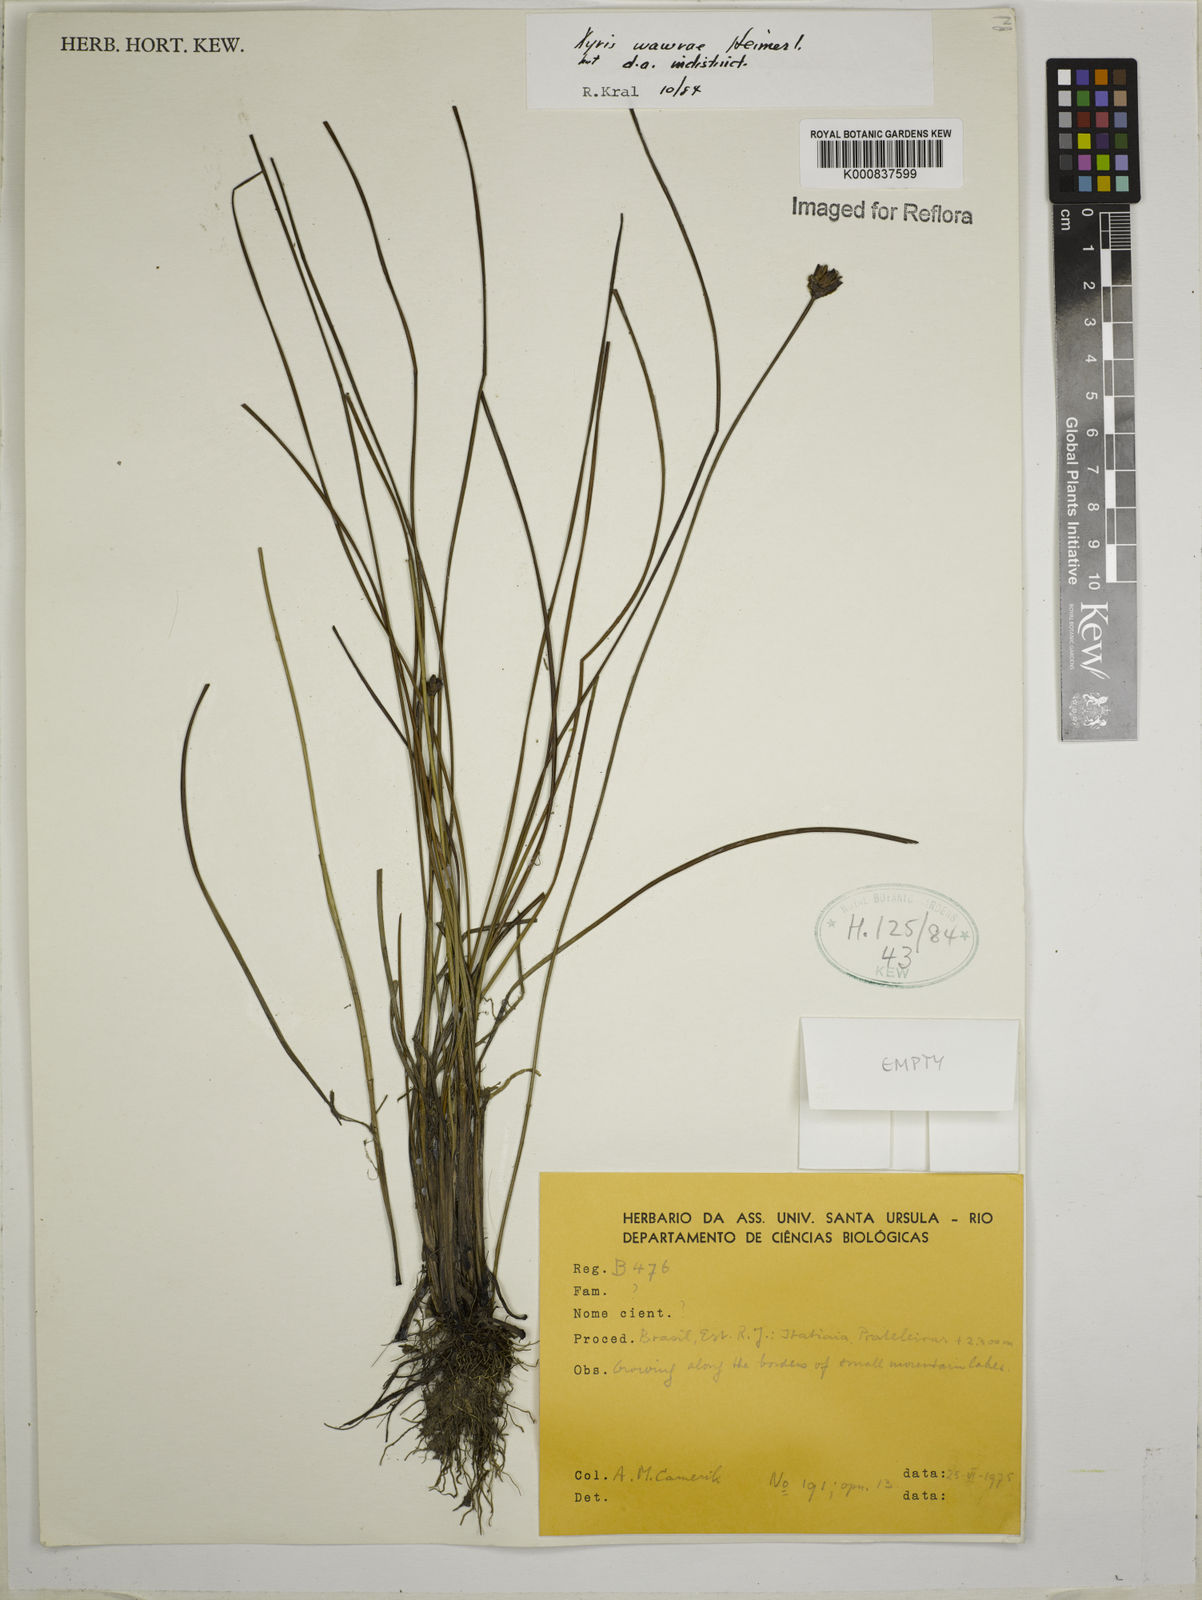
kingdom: Plantae
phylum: Tracheophyta
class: Liliopsida
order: Poales
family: Xyridaceae
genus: Xyris
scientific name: Xyris wawrae
